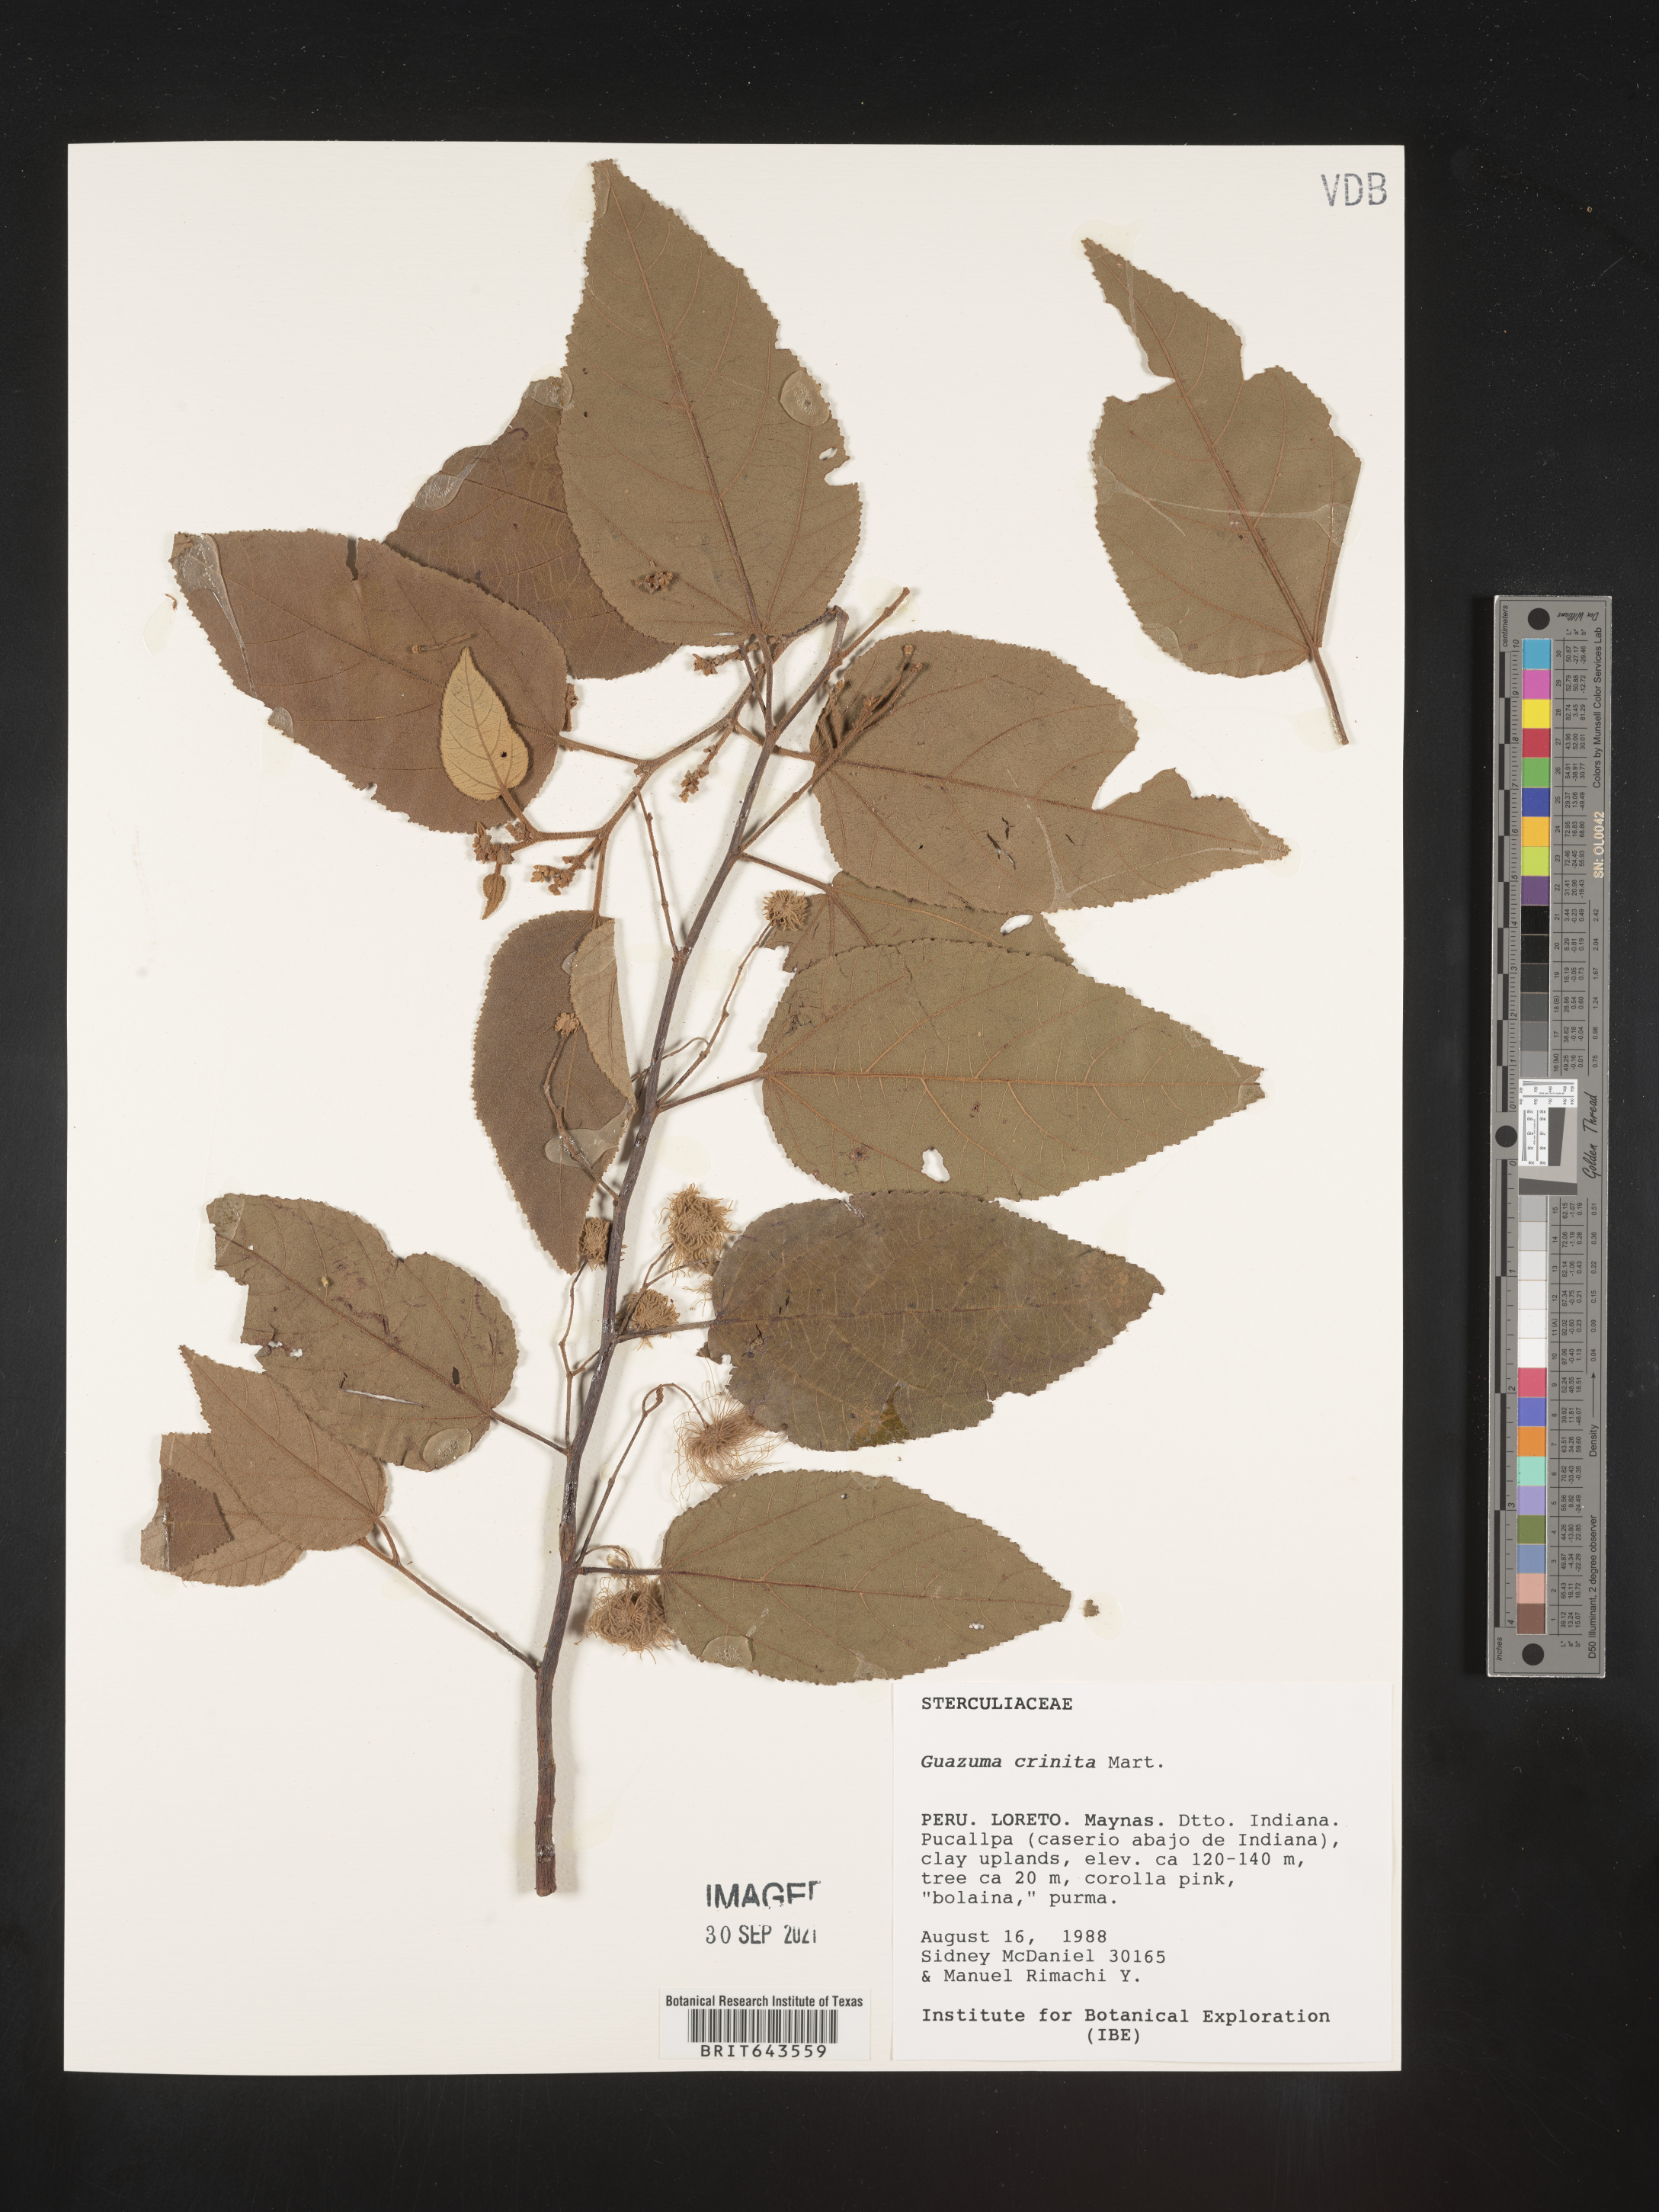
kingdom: Plantae
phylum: Tracheophyta
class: Magnoliopsida
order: Malvales
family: Malvaceae
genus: Guazuma
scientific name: Guazuma
